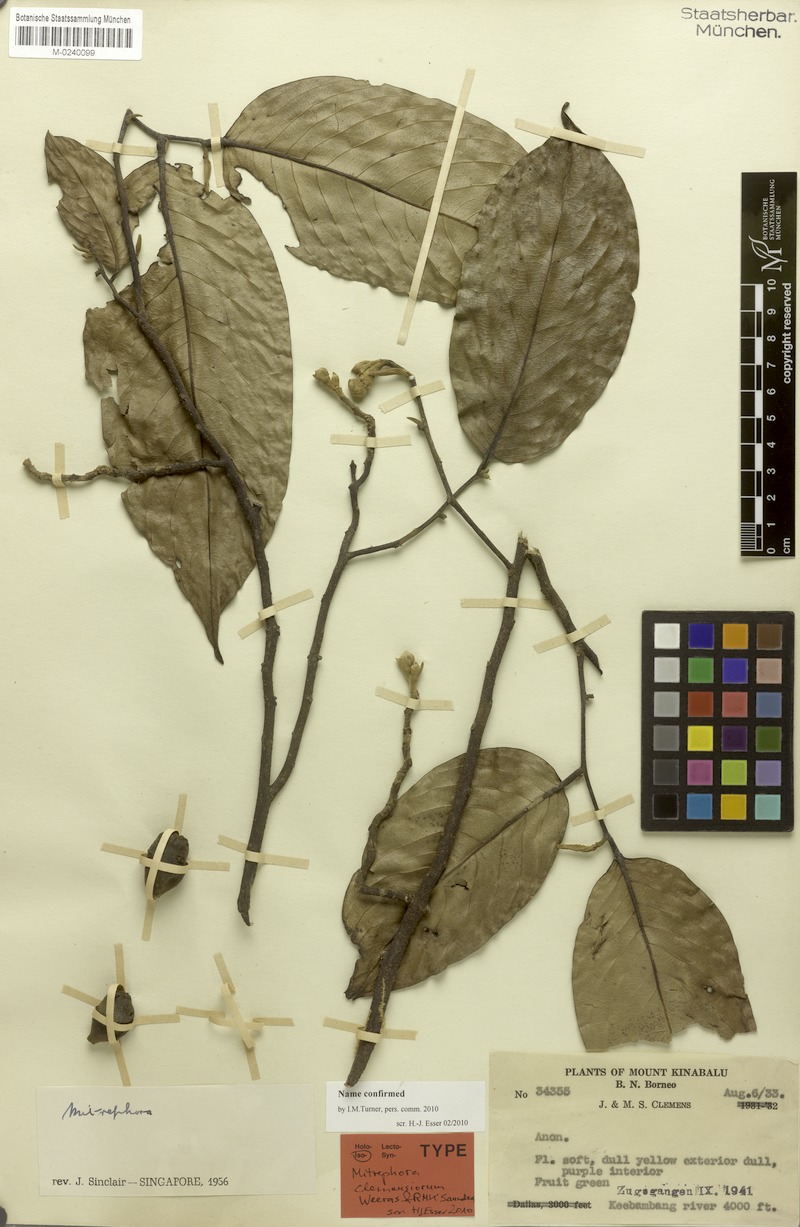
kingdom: Plantae
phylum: Tracheophyta
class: Magnoliopsida
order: Magnoliales
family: Annonaceae
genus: Mitrephora
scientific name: Mitrephora clemensiorum
